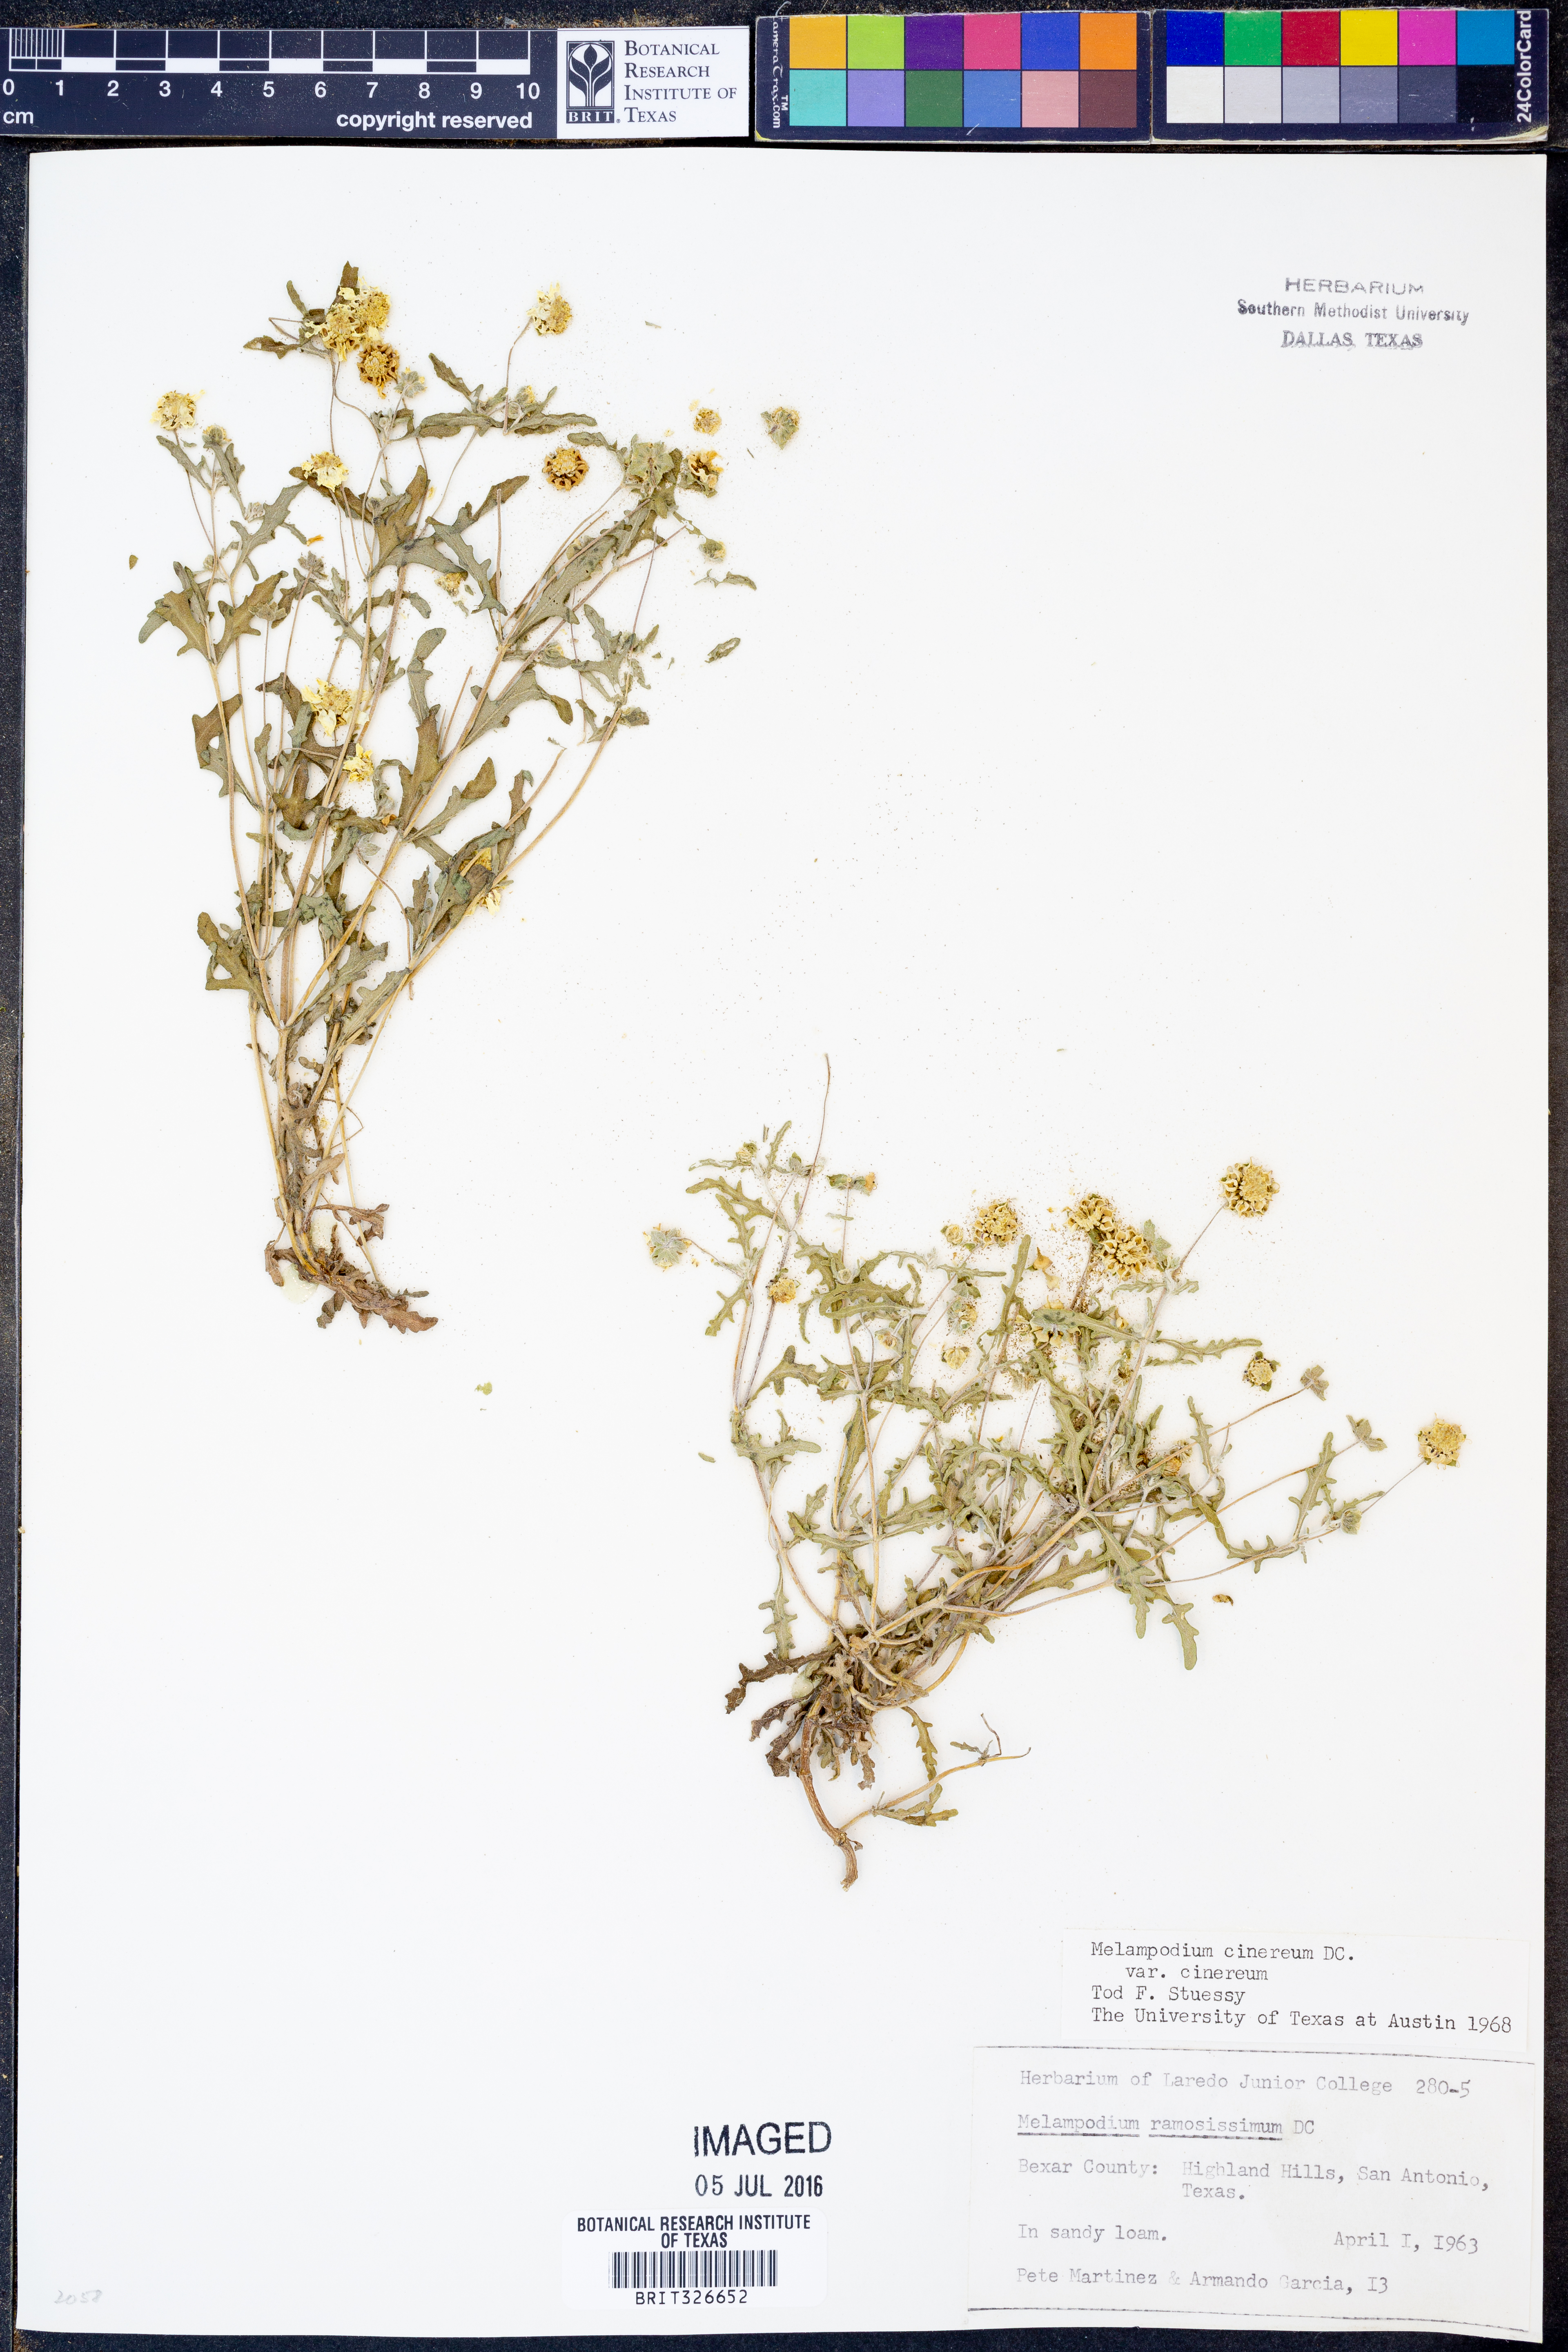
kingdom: Plantae
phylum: Tracheophyta
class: Magnoliopsida
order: Asterales
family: Asteraceae
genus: Melampodium
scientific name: Melampodium cinereum
